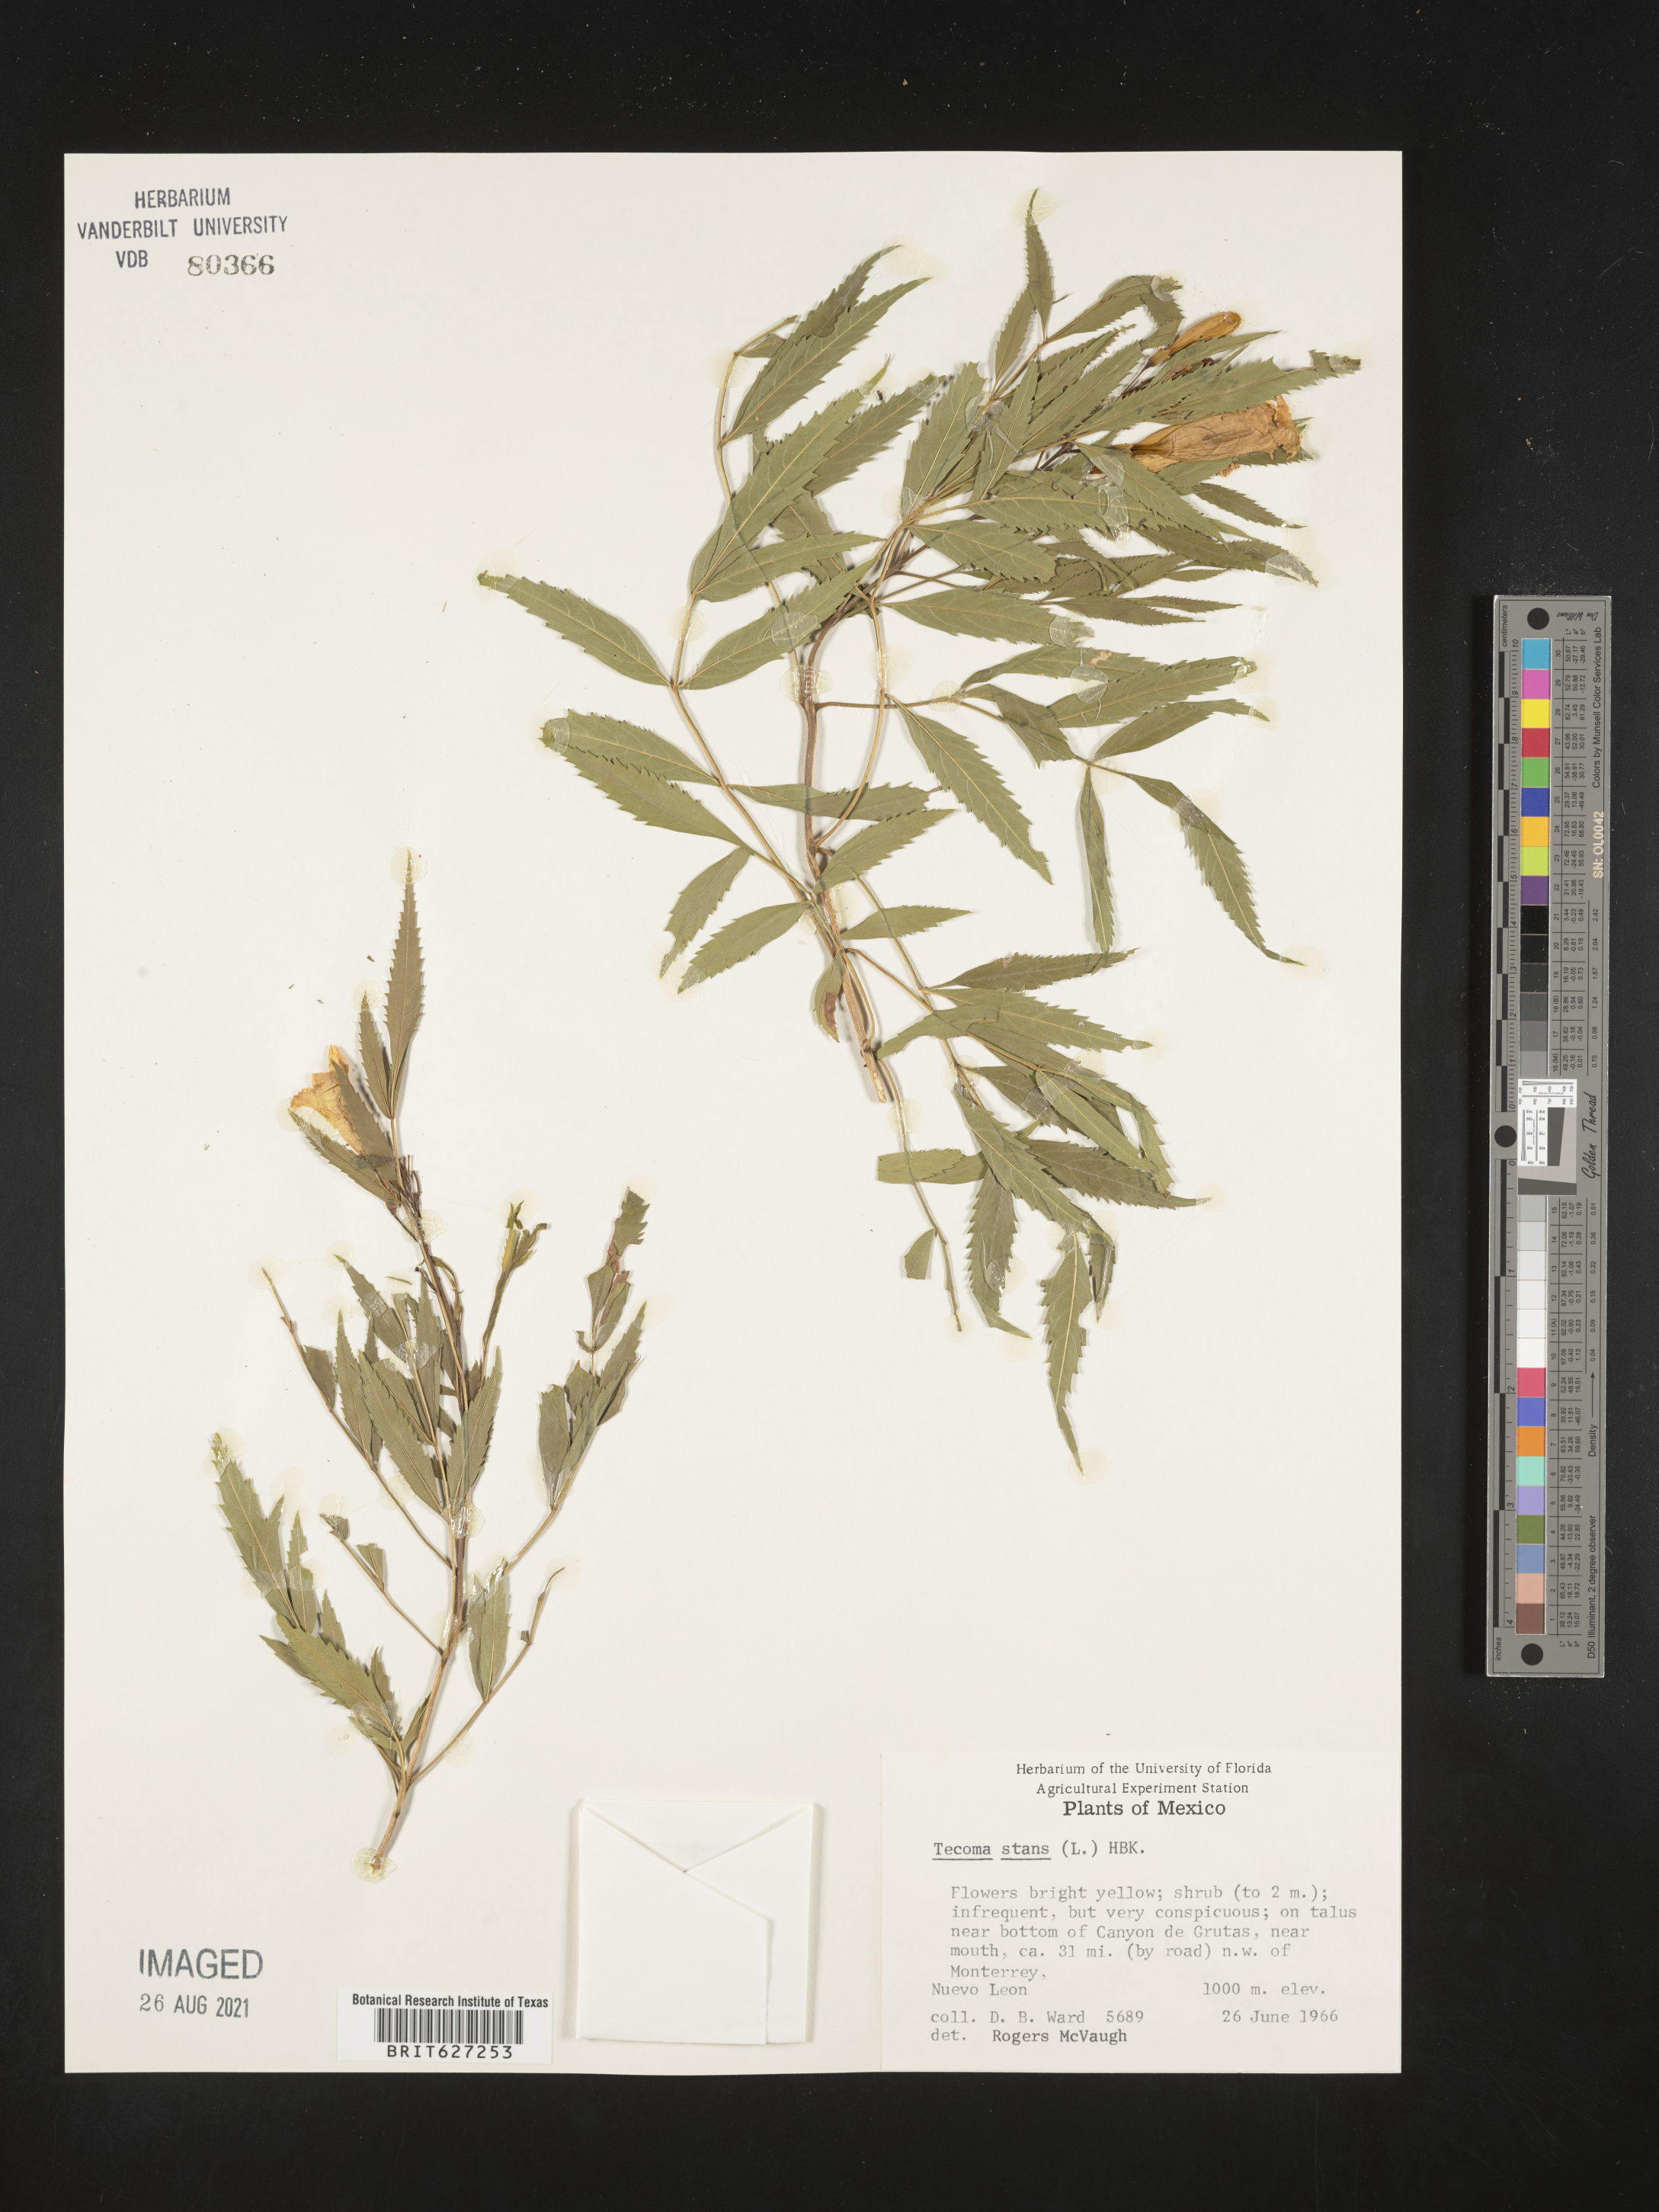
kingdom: Plantae
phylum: Tracheophyta
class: Magnoliopsida
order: Lamiales
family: Bignoniaceae
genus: Tecoma
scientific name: Tecoma
